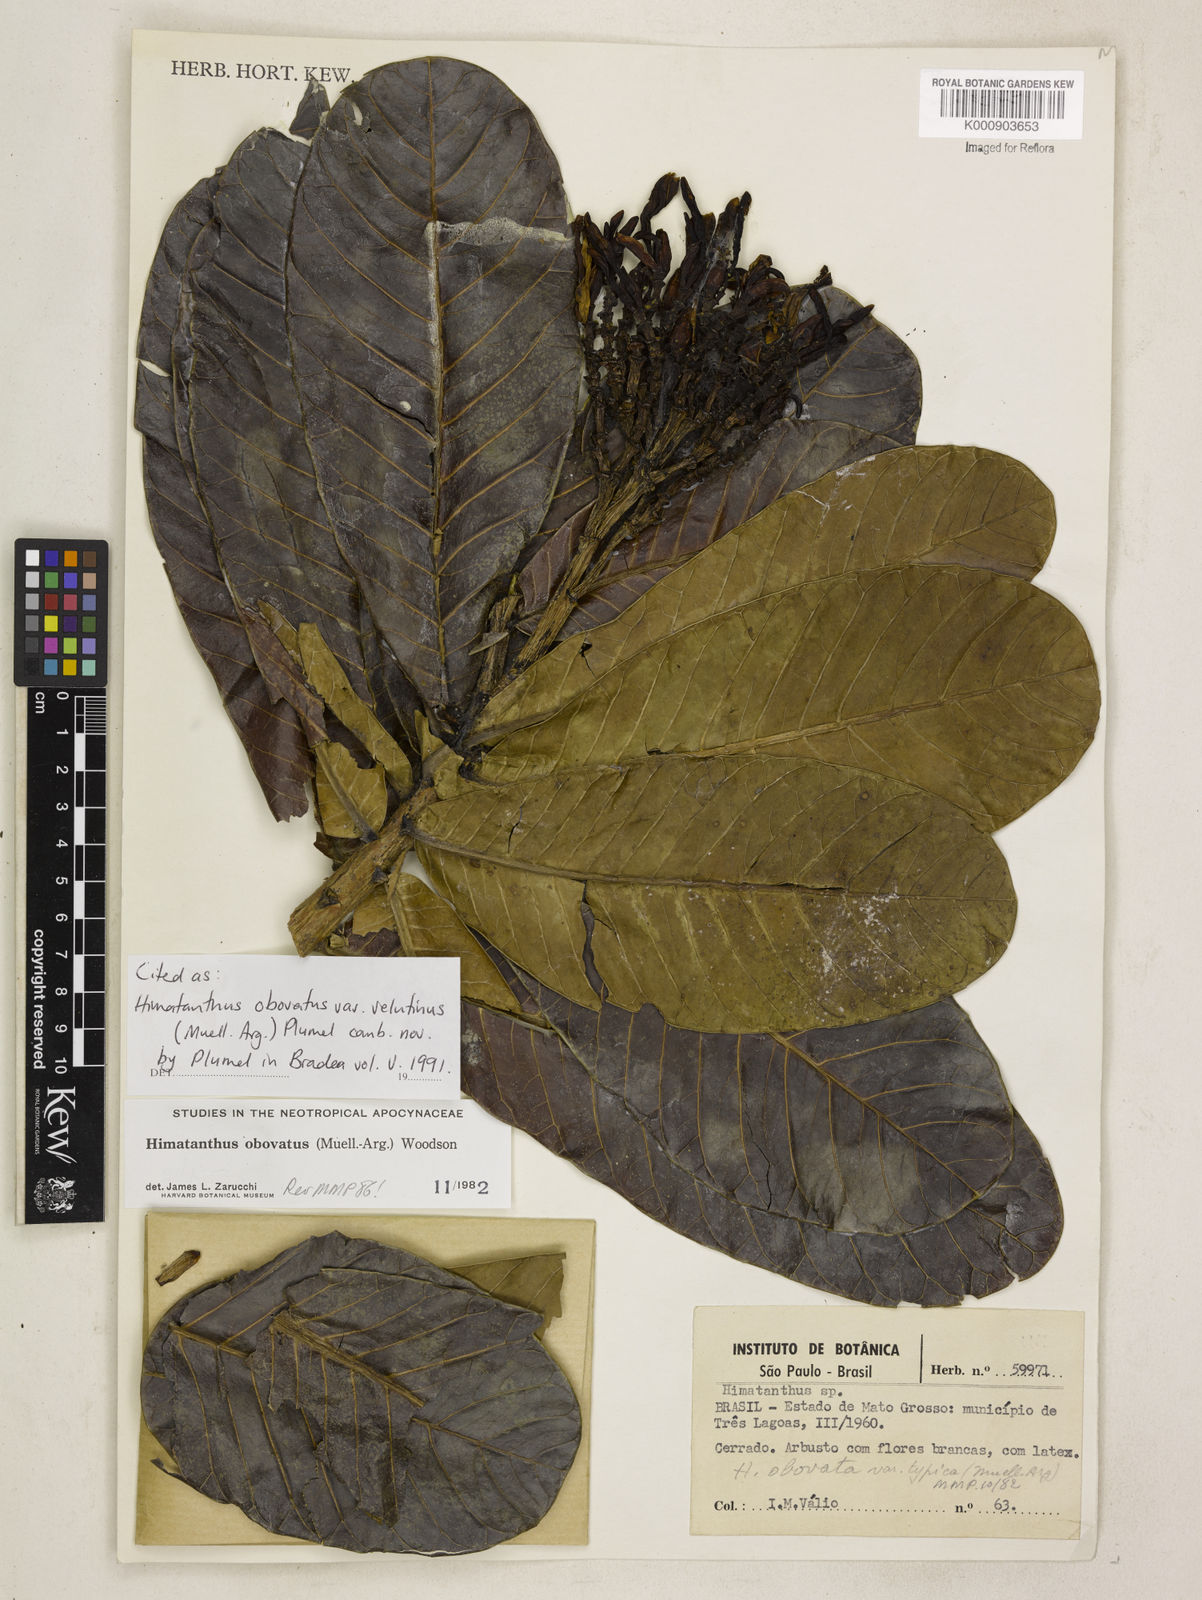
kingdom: Plantae
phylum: Tracheophyta
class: Magnoliopsida
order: Gentianales
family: Apocynaceae
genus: Himatanthus
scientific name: Himatanthus
